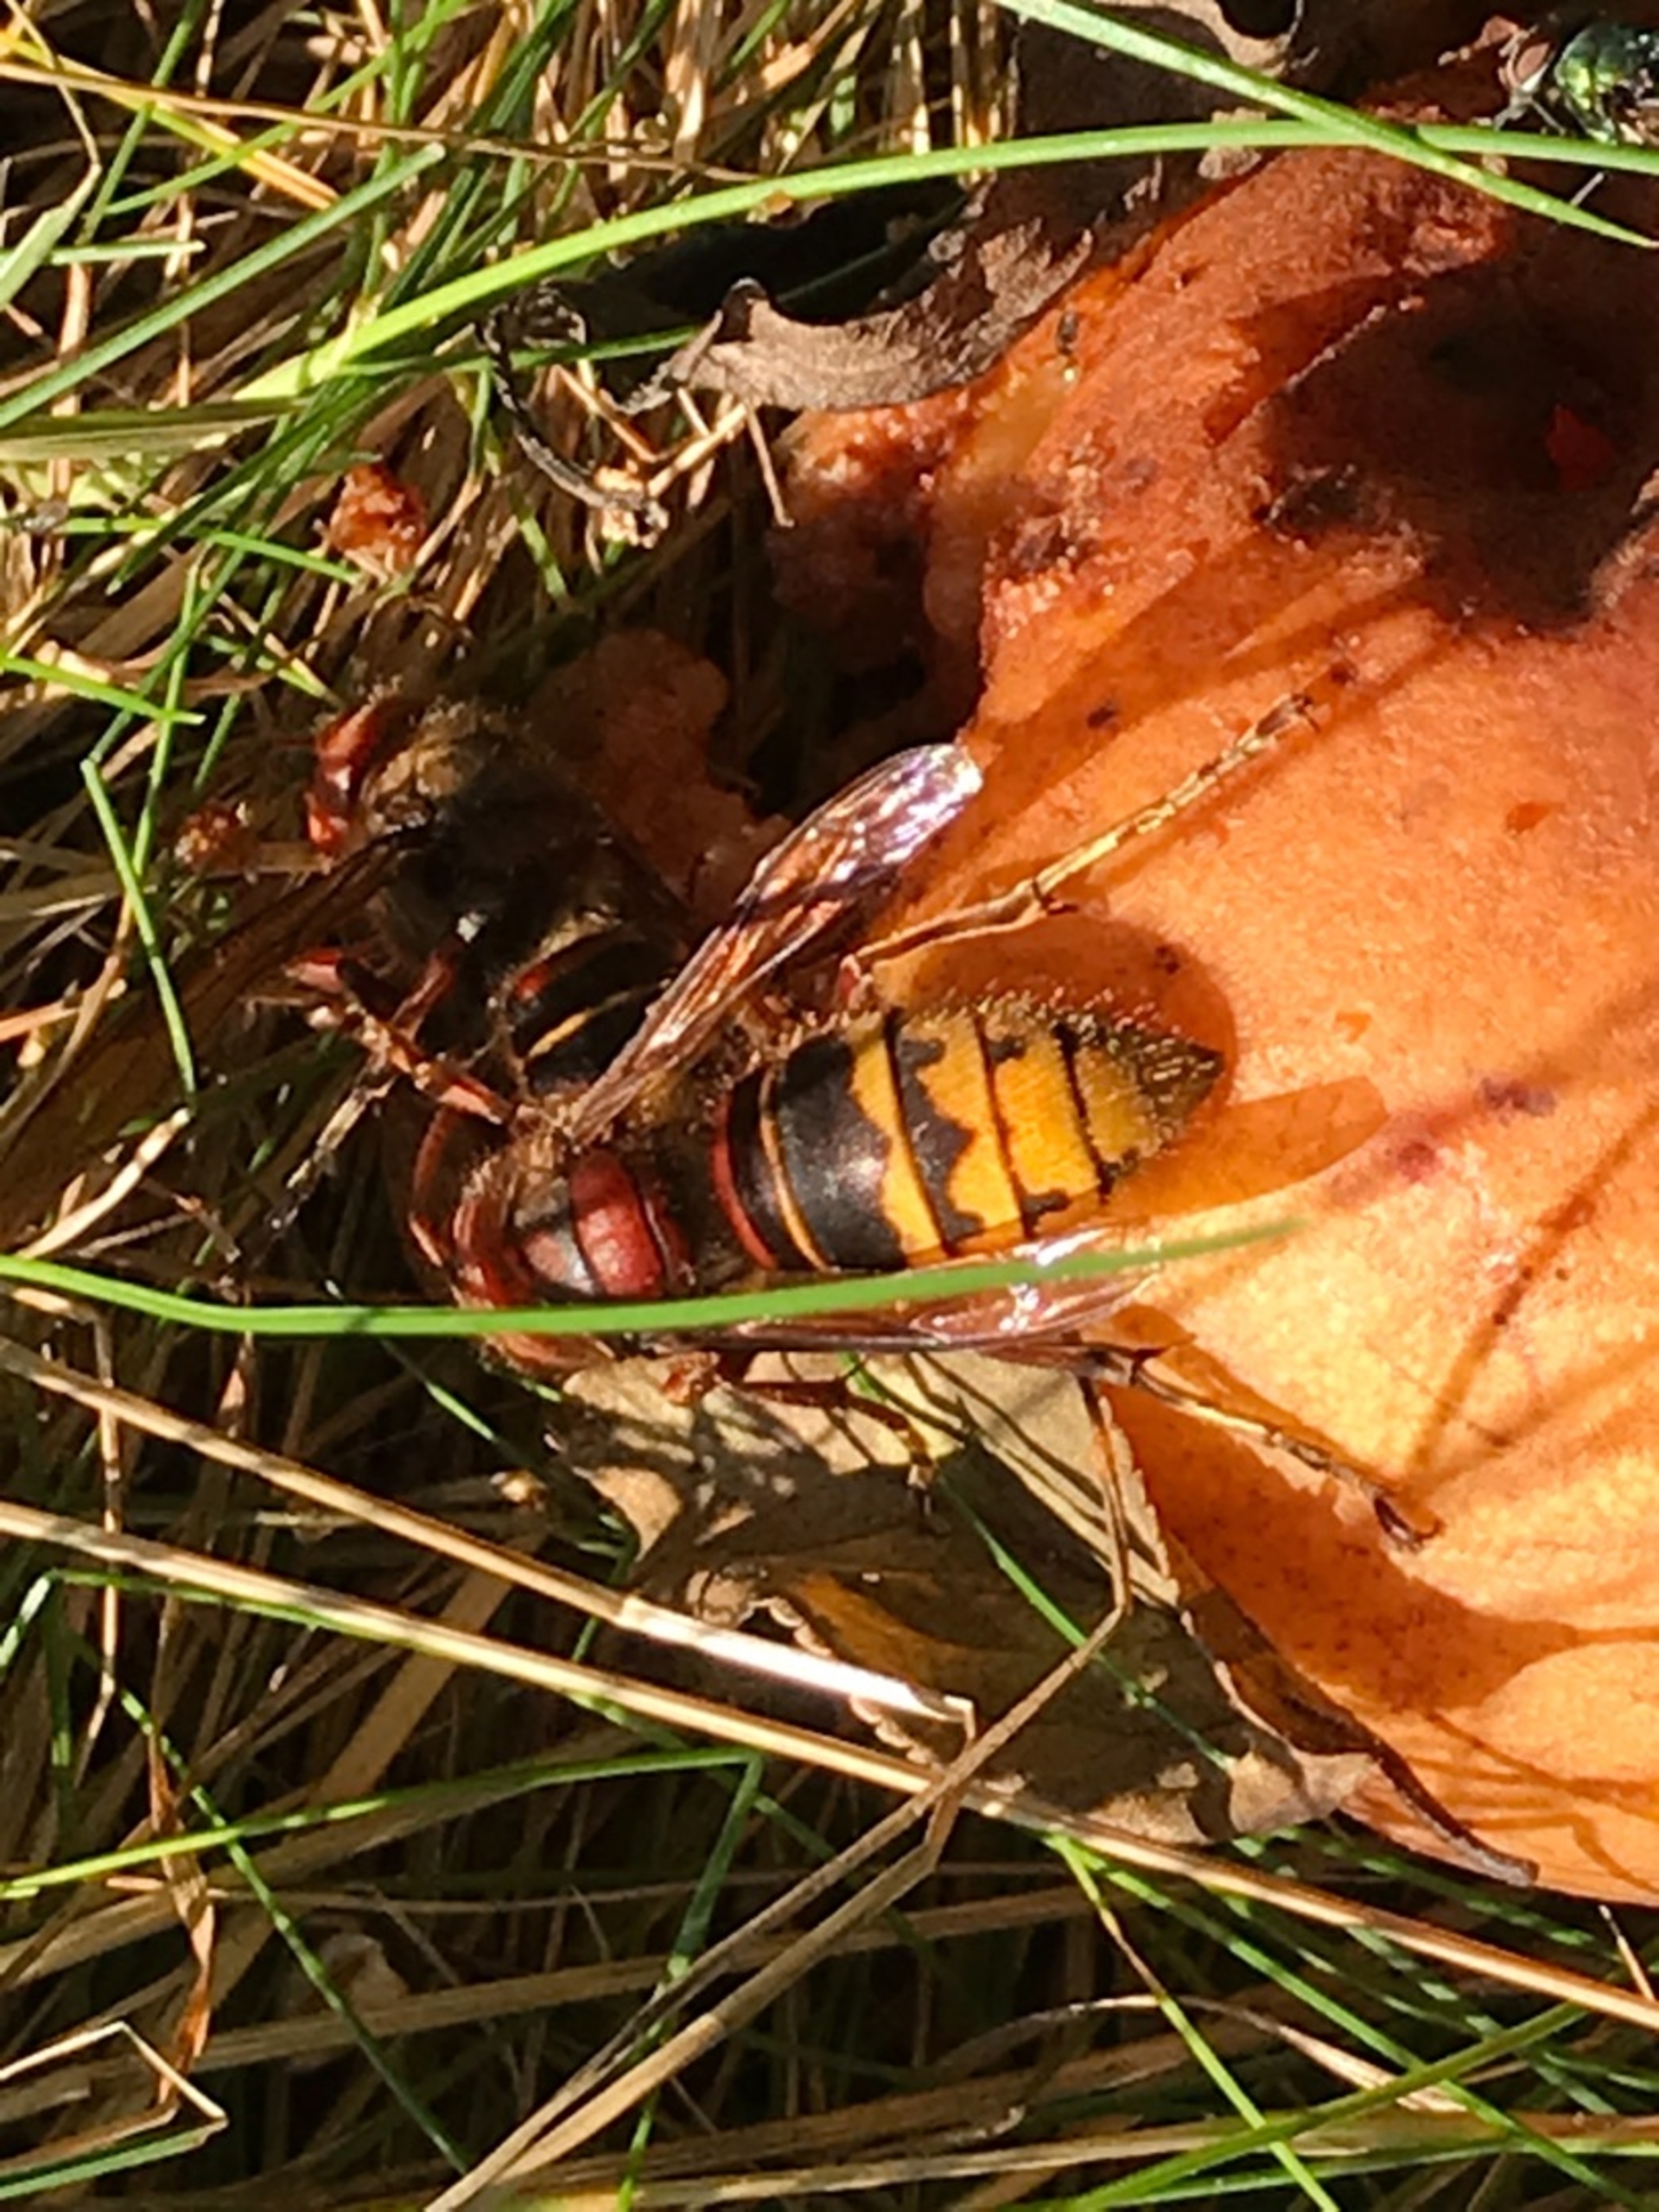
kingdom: Animalia
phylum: Arthropoda
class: Insecta
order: Hymenoptera
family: Vespidae
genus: Vespa
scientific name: Vespa crabro
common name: Stor gedehams
